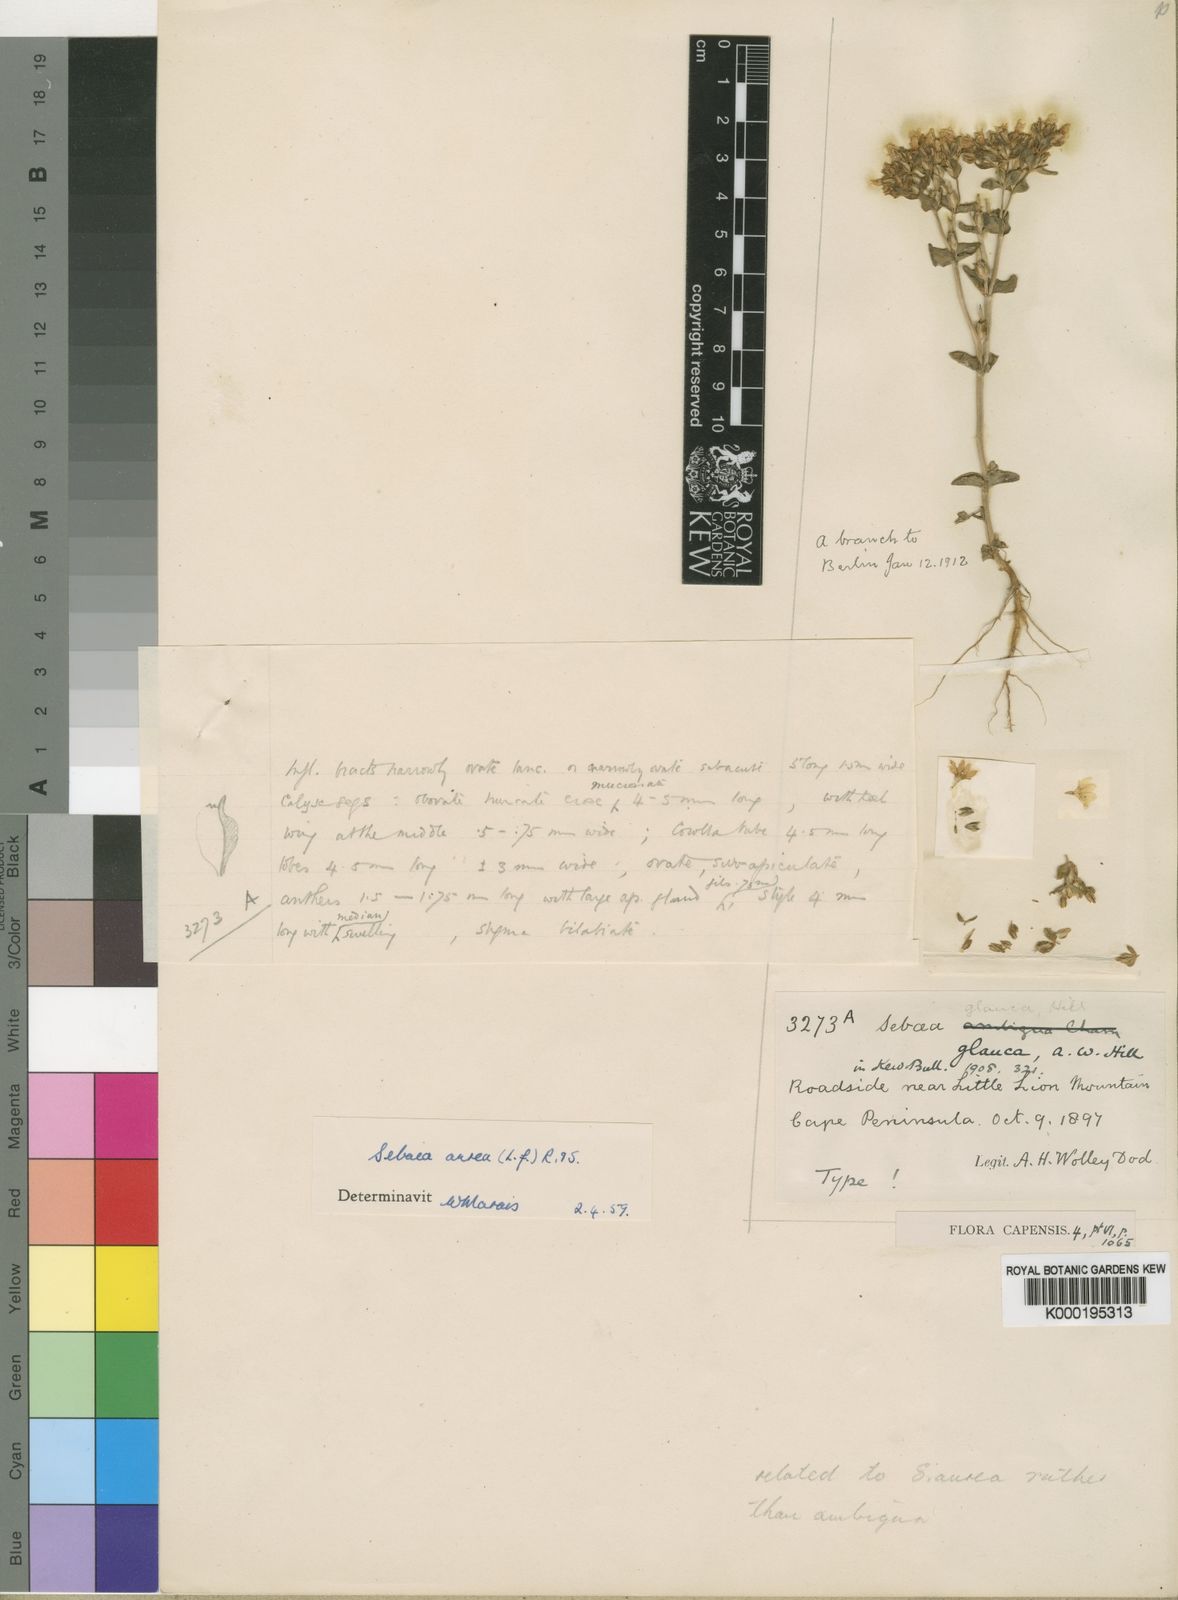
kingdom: Plantae
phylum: Tracheophyta
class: Magnoliopsida
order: Gentianales
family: Gentianaceae
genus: Sebaea
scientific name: Sebaea aurea
